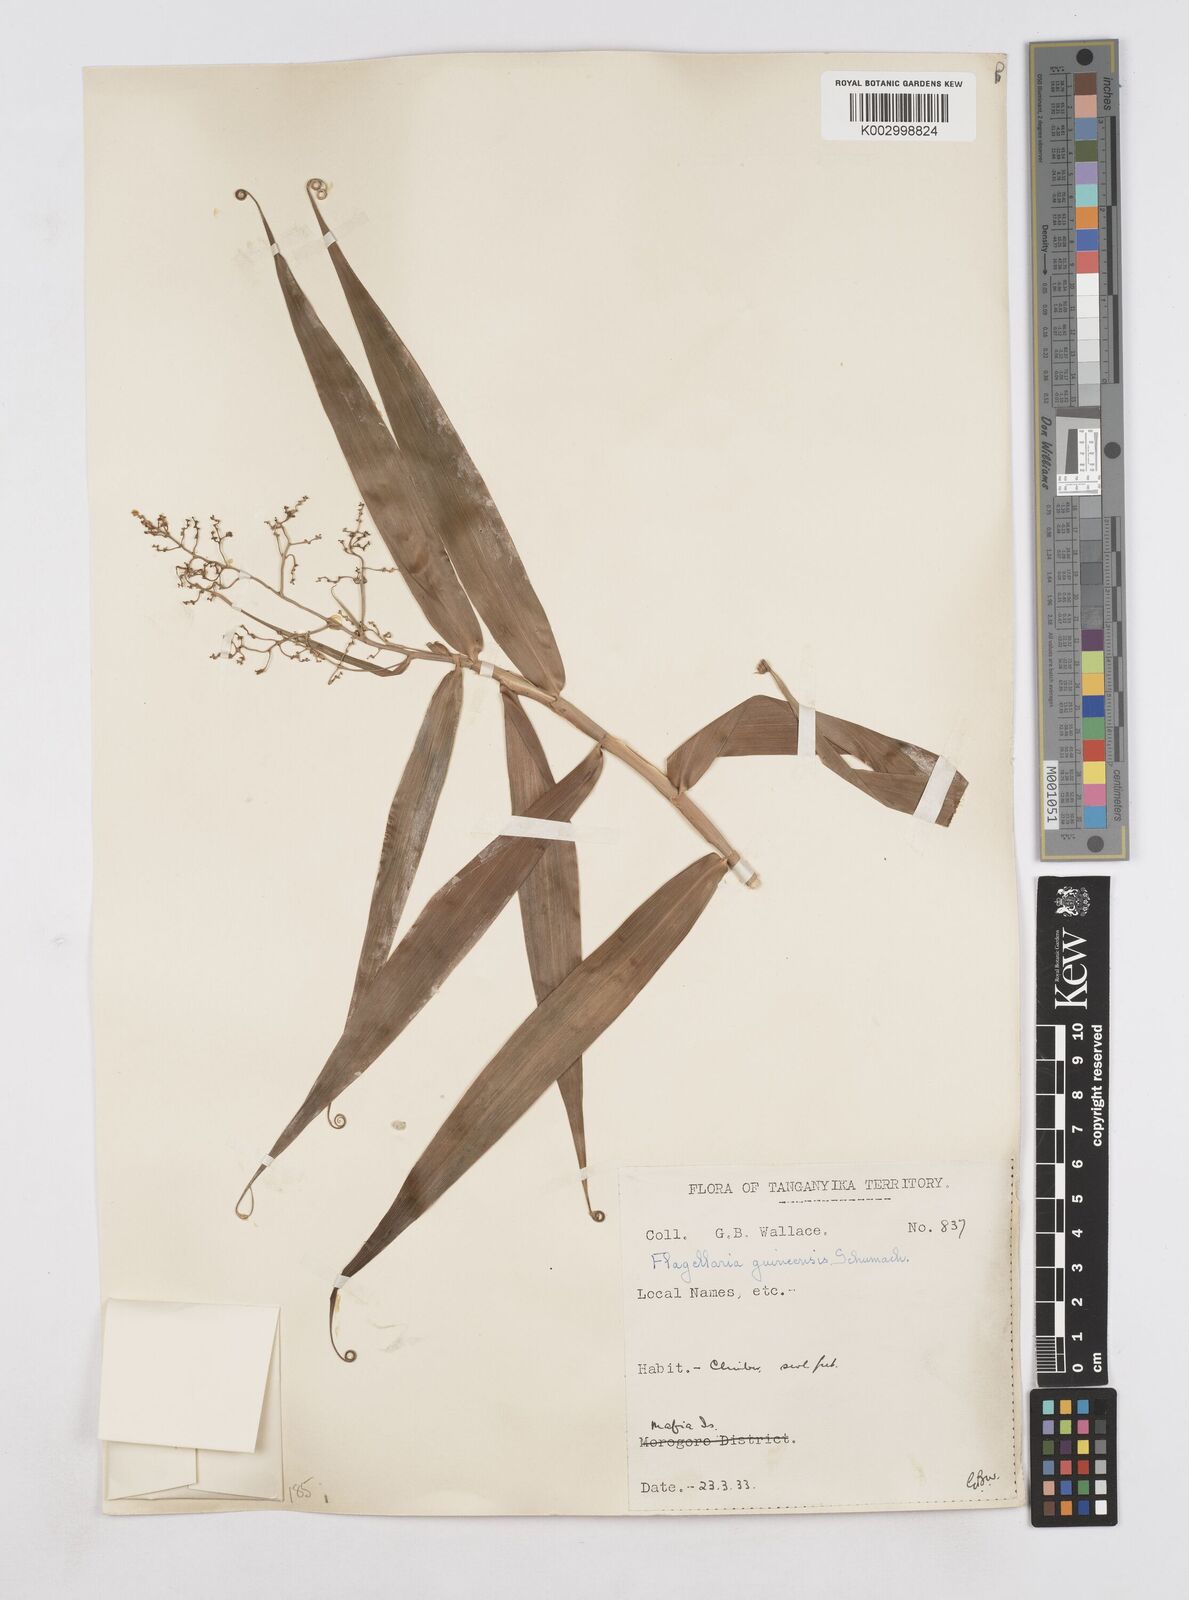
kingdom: Plantae
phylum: Tracheophyta
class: Liliopsida
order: Poales
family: Flagellariaceae
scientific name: Flagellariaceae
